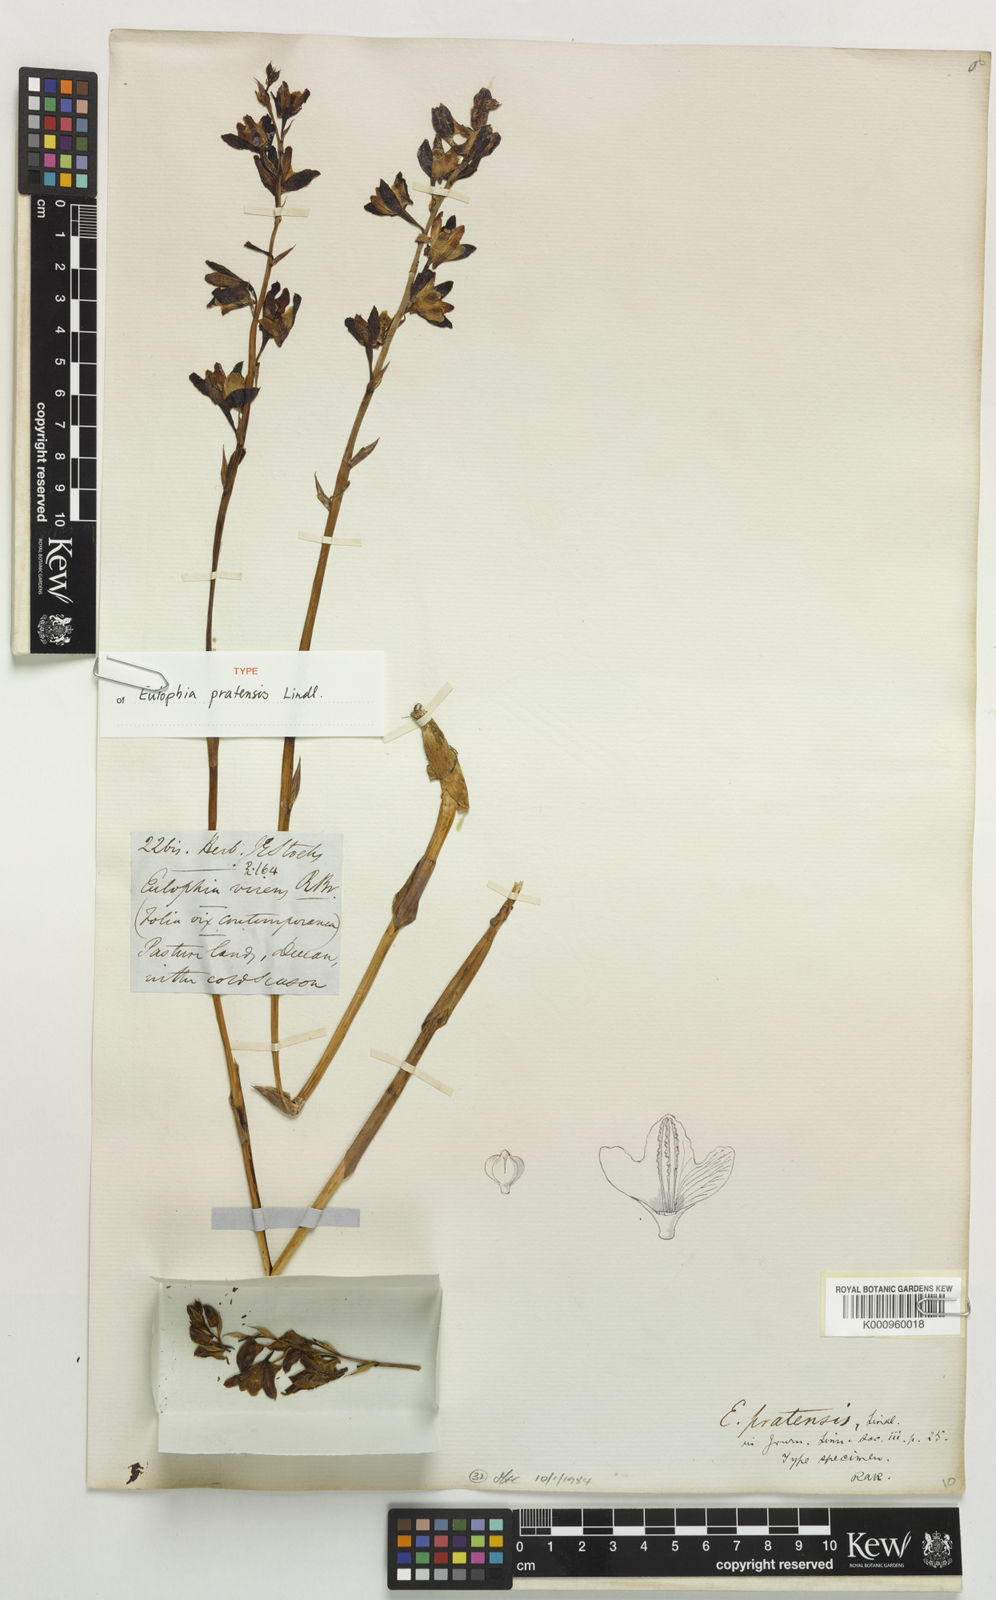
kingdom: Plantae
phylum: Tracheophyta
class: Liliopsida
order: Asparagales
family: Orchidaceae
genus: Eulophia
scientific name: Eulophia pratensis
